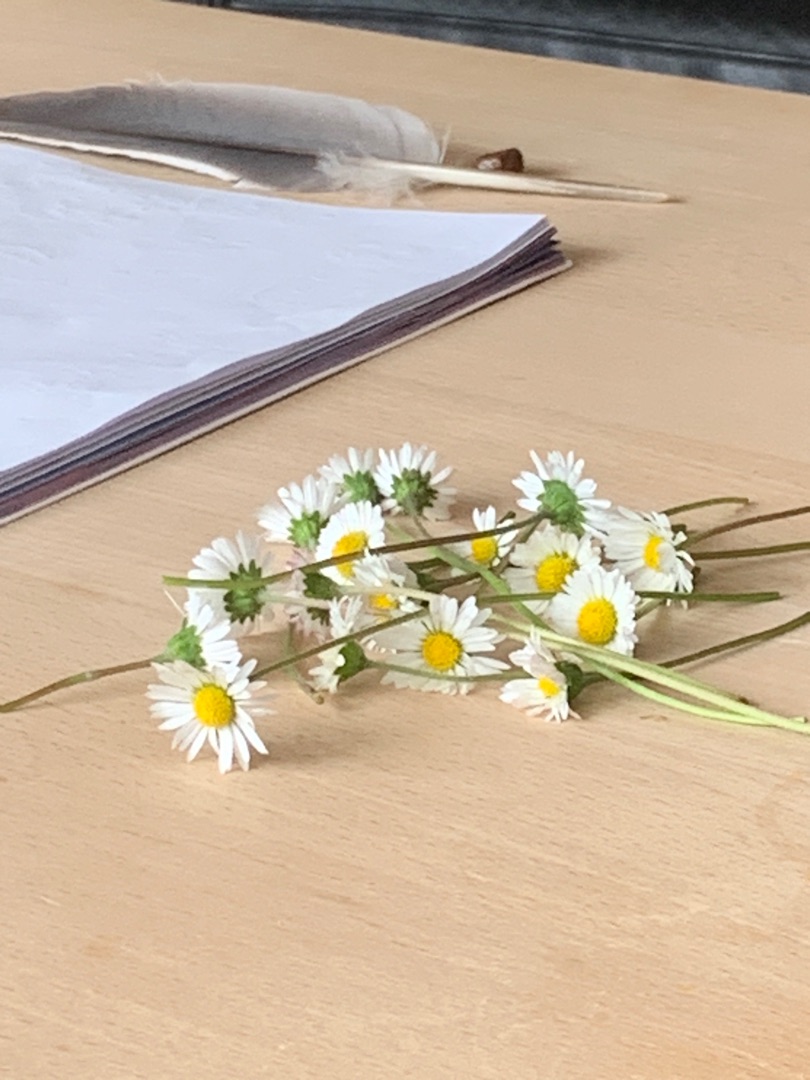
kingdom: Plantae
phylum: Tracheophyta
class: Magnoliopsida
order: Asterales
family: Asteraceae
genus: Bellis
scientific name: Bellis perennis
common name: Tusindfryd
